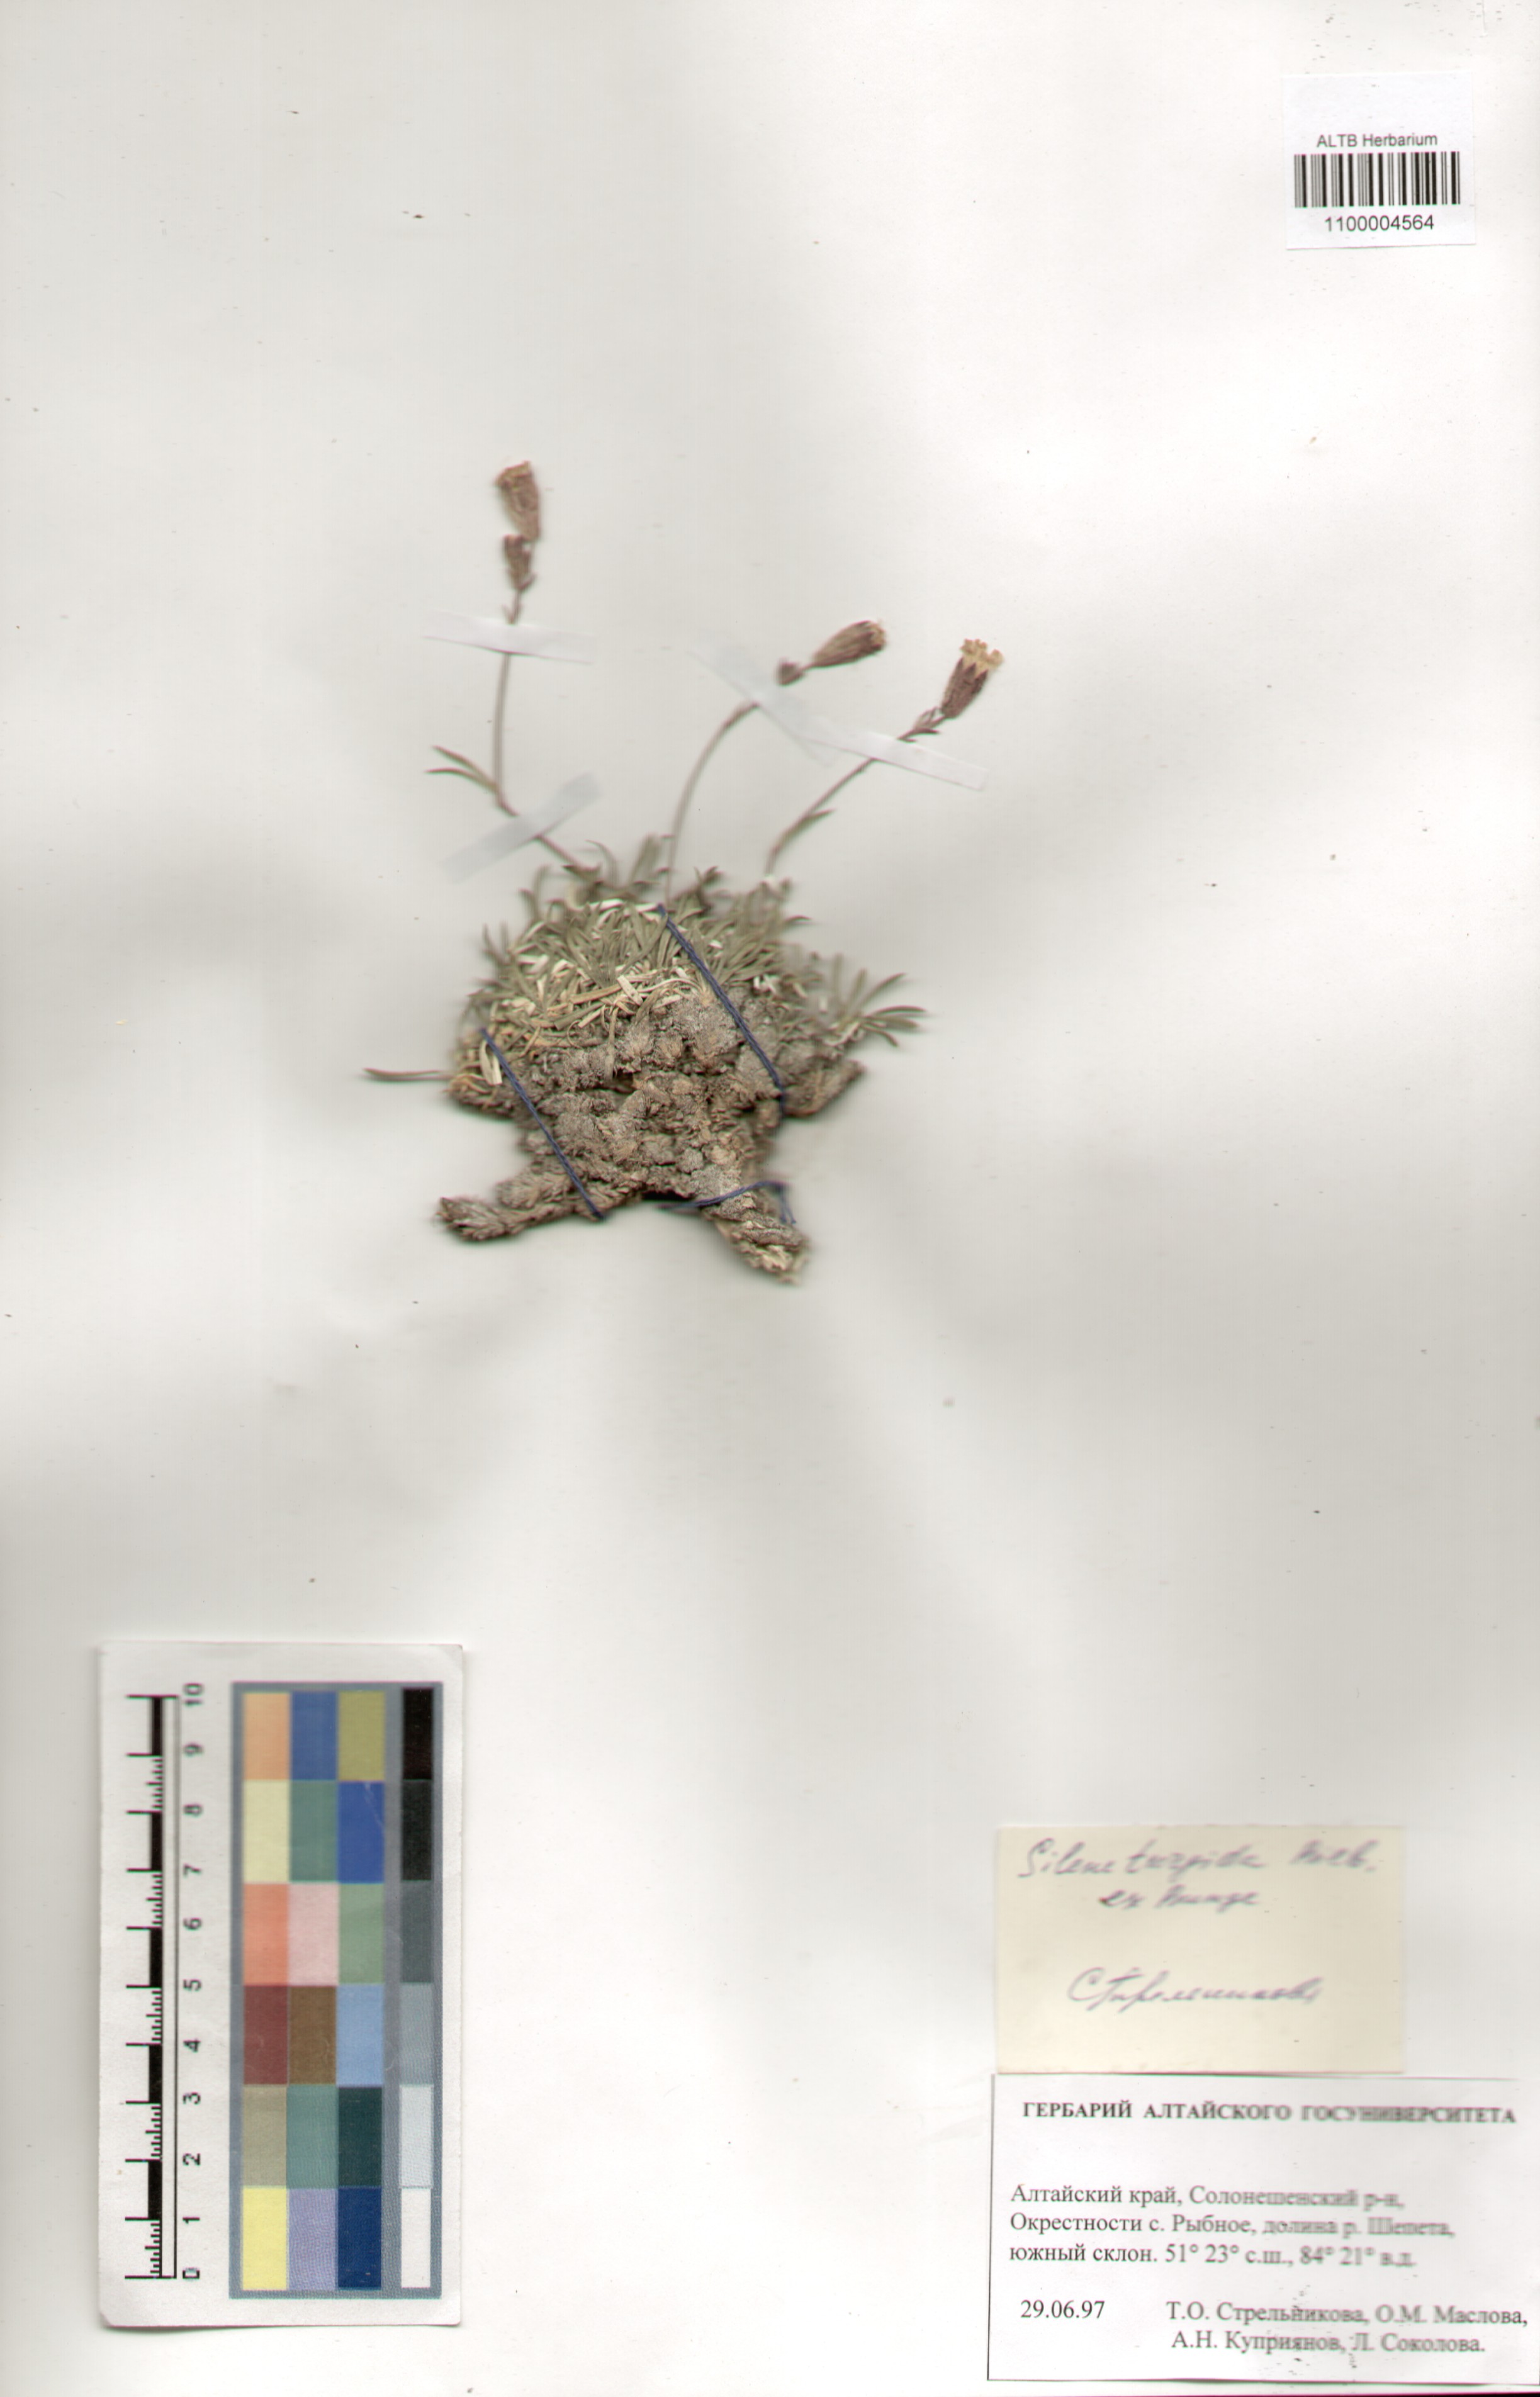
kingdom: Plantae
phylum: Tracheophyta
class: Magnoliopsida
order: Caryophyllales
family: Caryophyllaceae
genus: Silene
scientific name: Silene turgida
